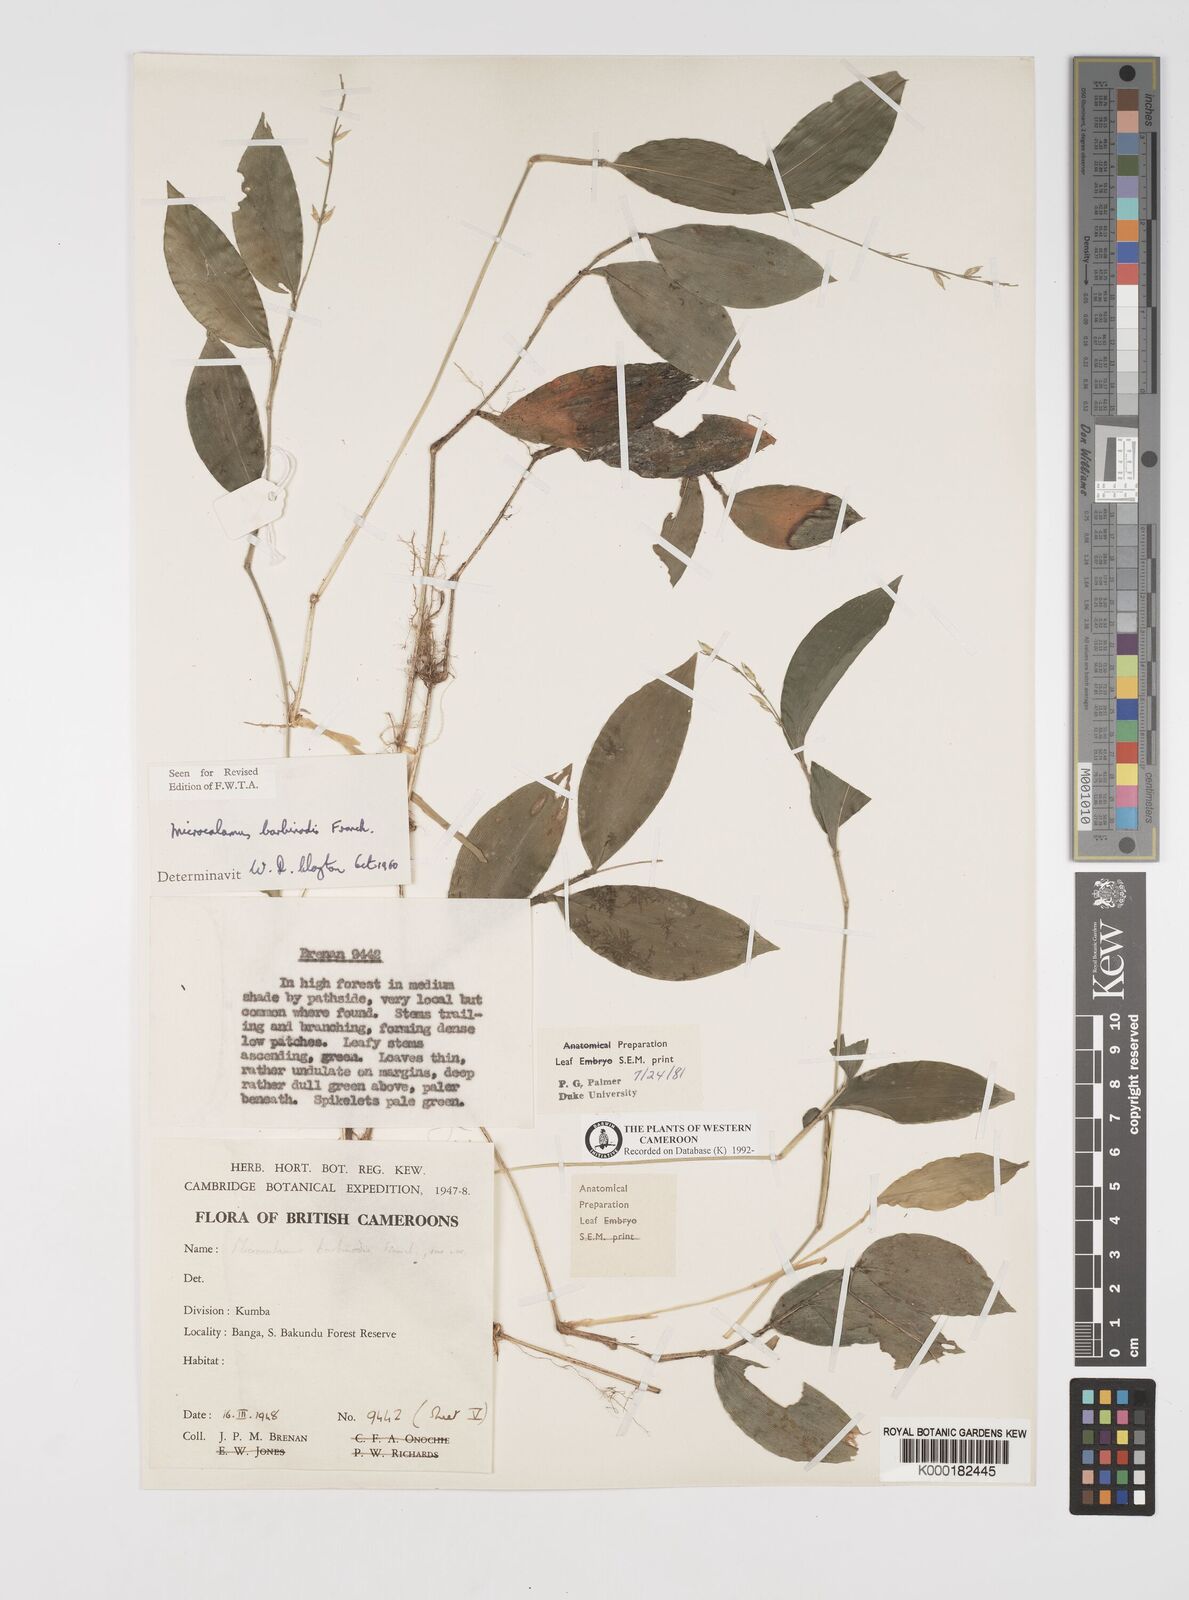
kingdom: Plantae
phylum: Tracheophyta
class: Liliopsida
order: Poales
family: Poaceae
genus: Microcalamus
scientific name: Microcalamus barbinodis
